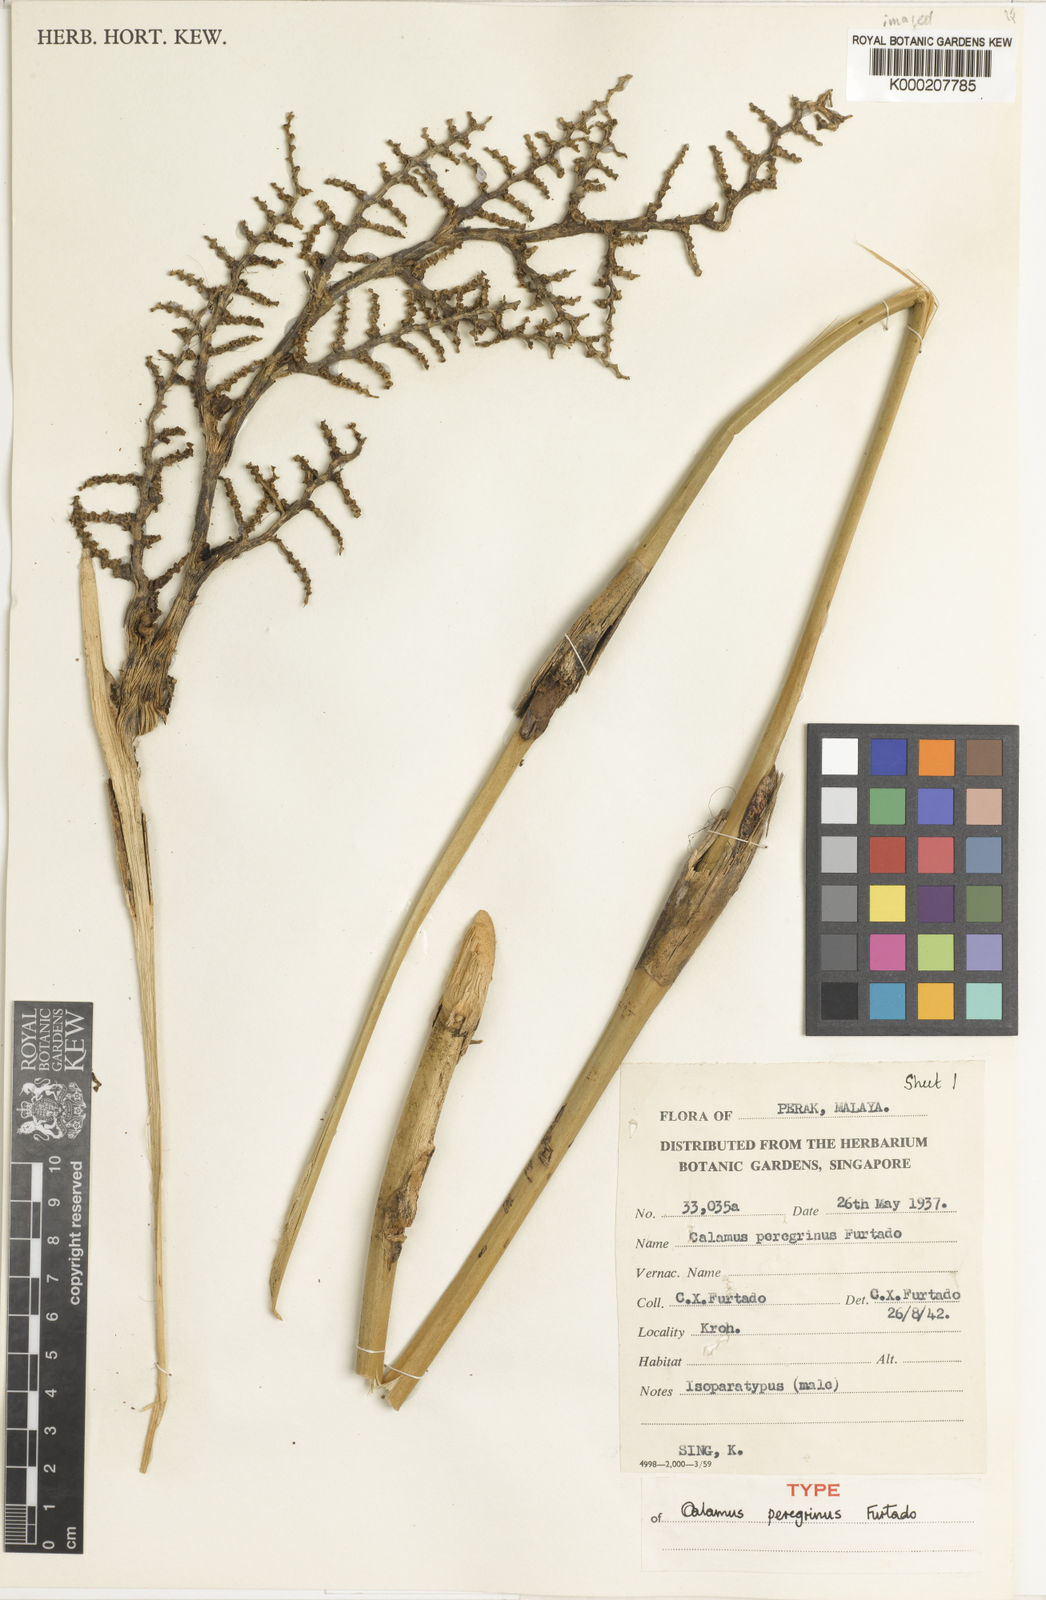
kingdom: Plantae
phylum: Tracheophyta
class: Liliopsida
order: Arecales
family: Arecaceae
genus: Calamus
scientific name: Calamus peregrinus
